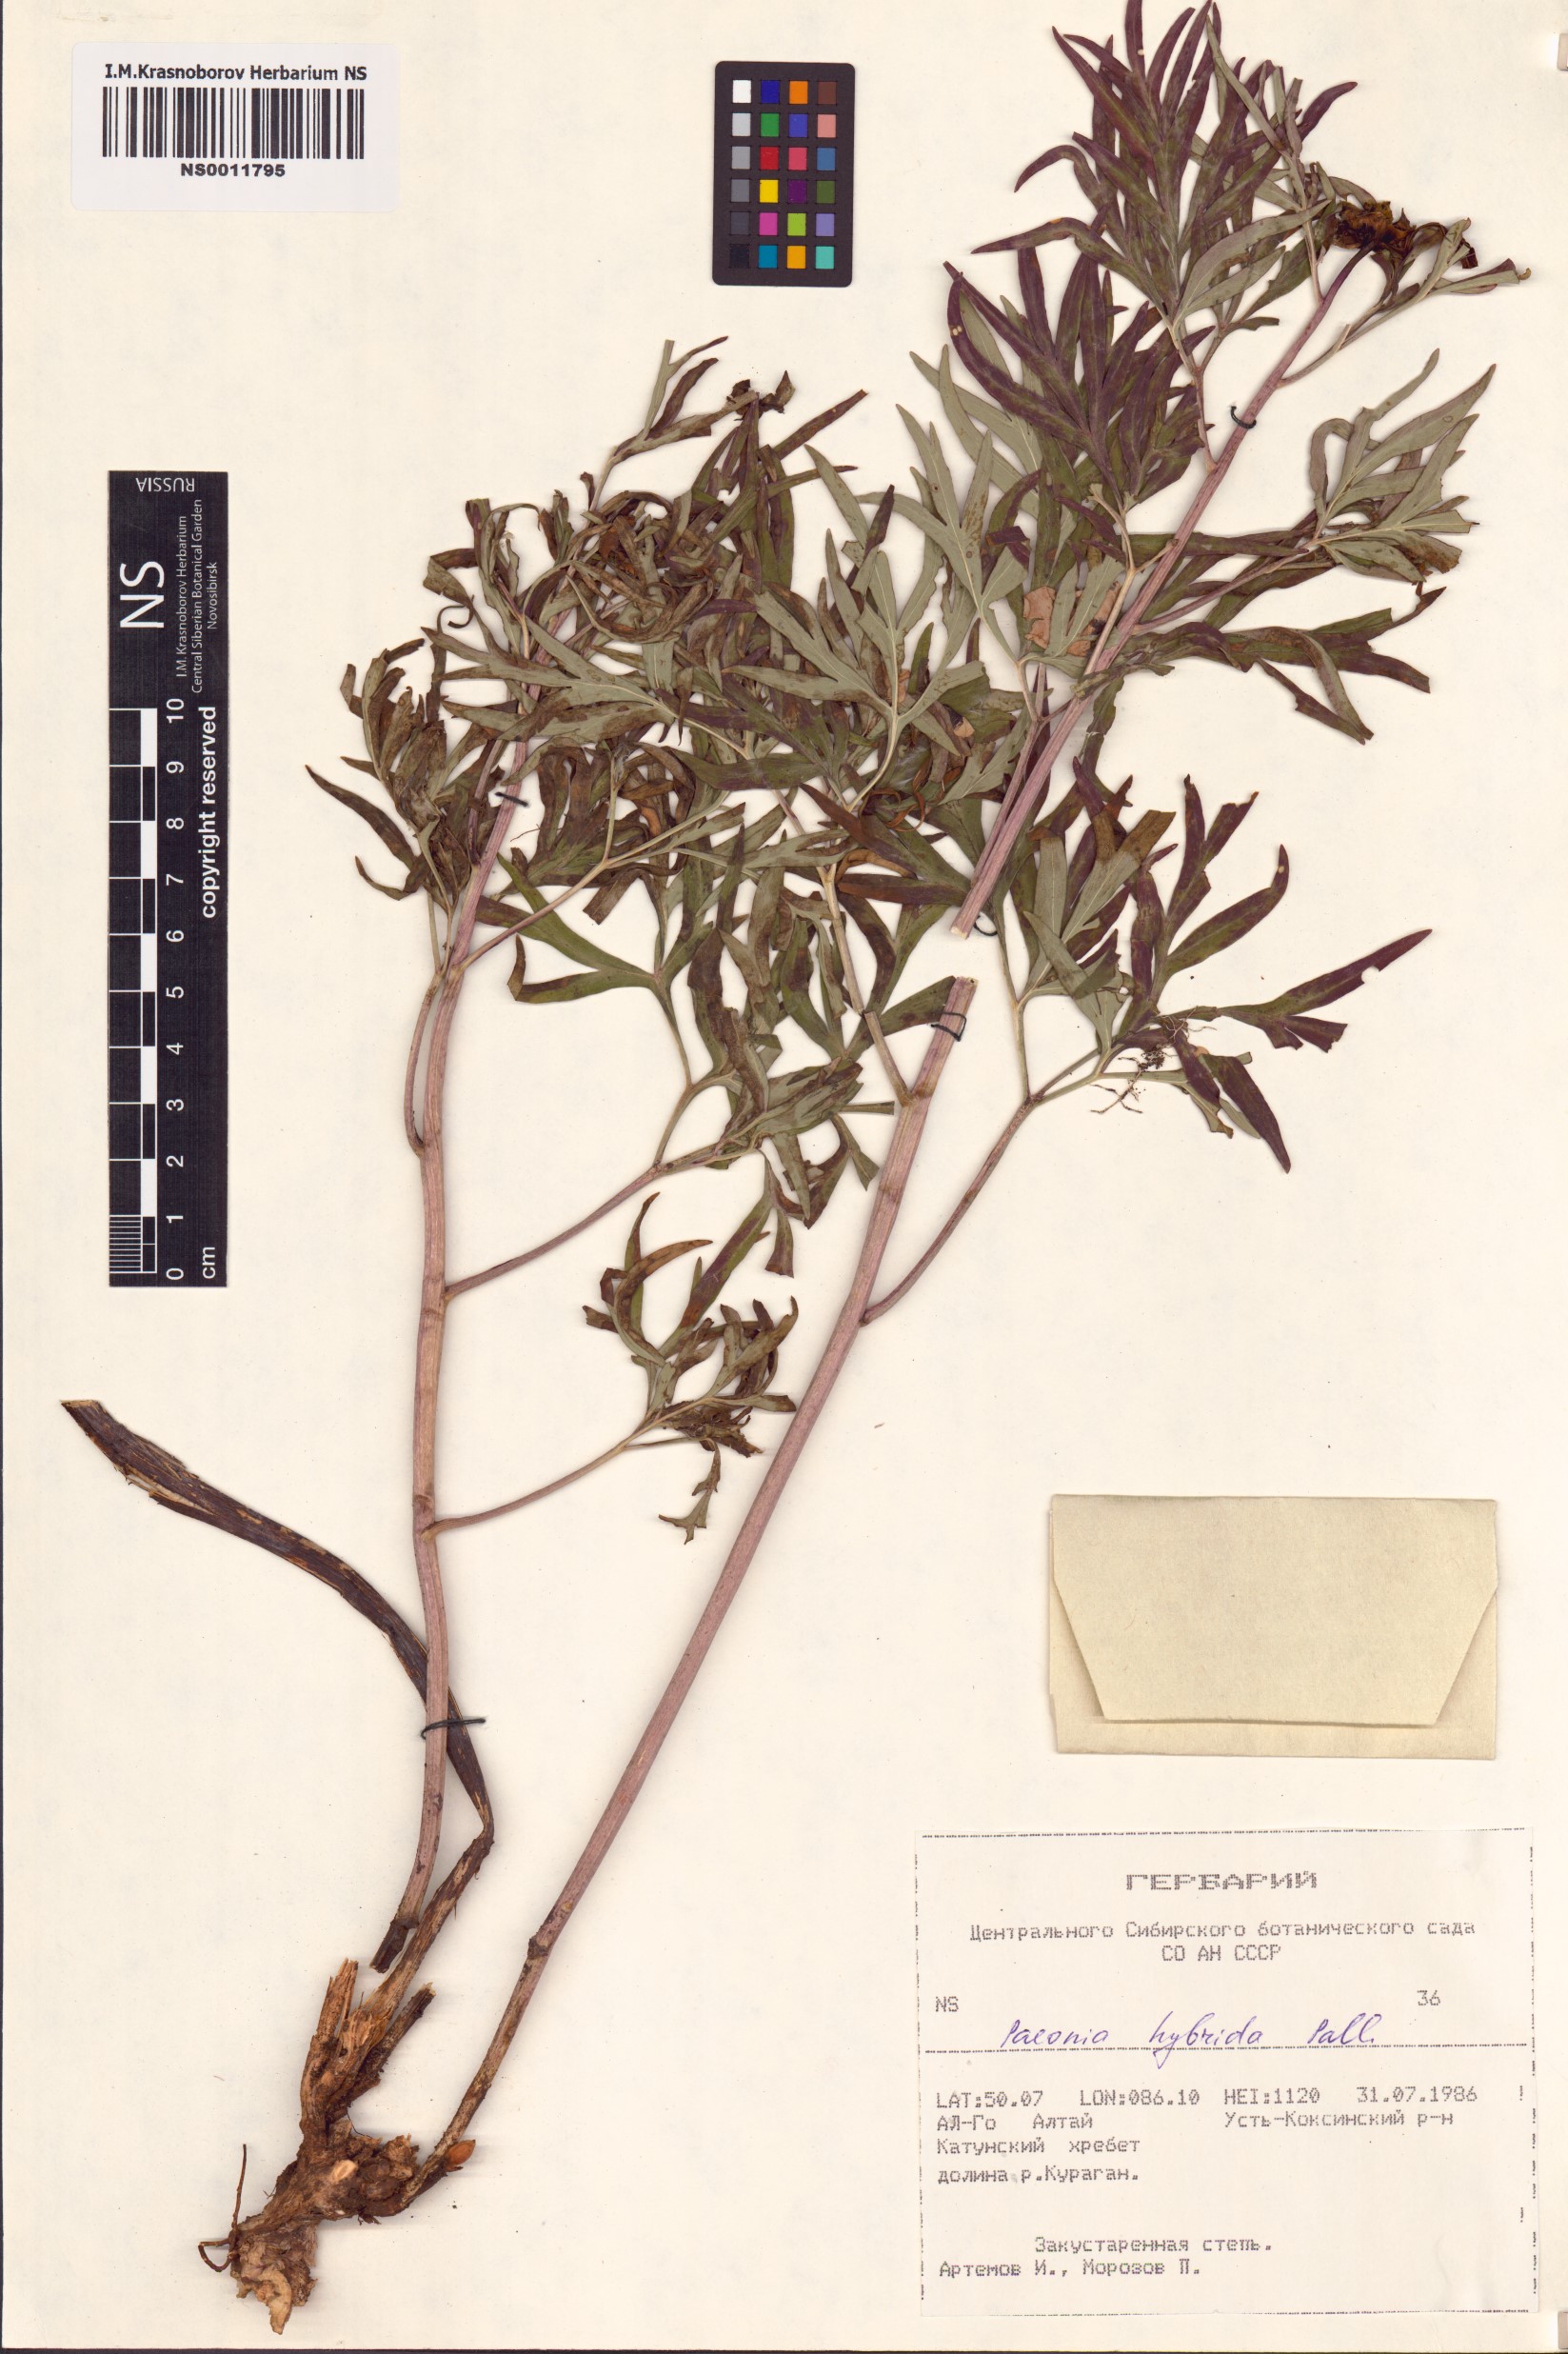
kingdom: Plantae
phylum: Tracheophyta
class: Magnoliopsida
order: Saxifragales
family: Paeoniaceae
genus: Paeonia
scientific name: Paeonia
